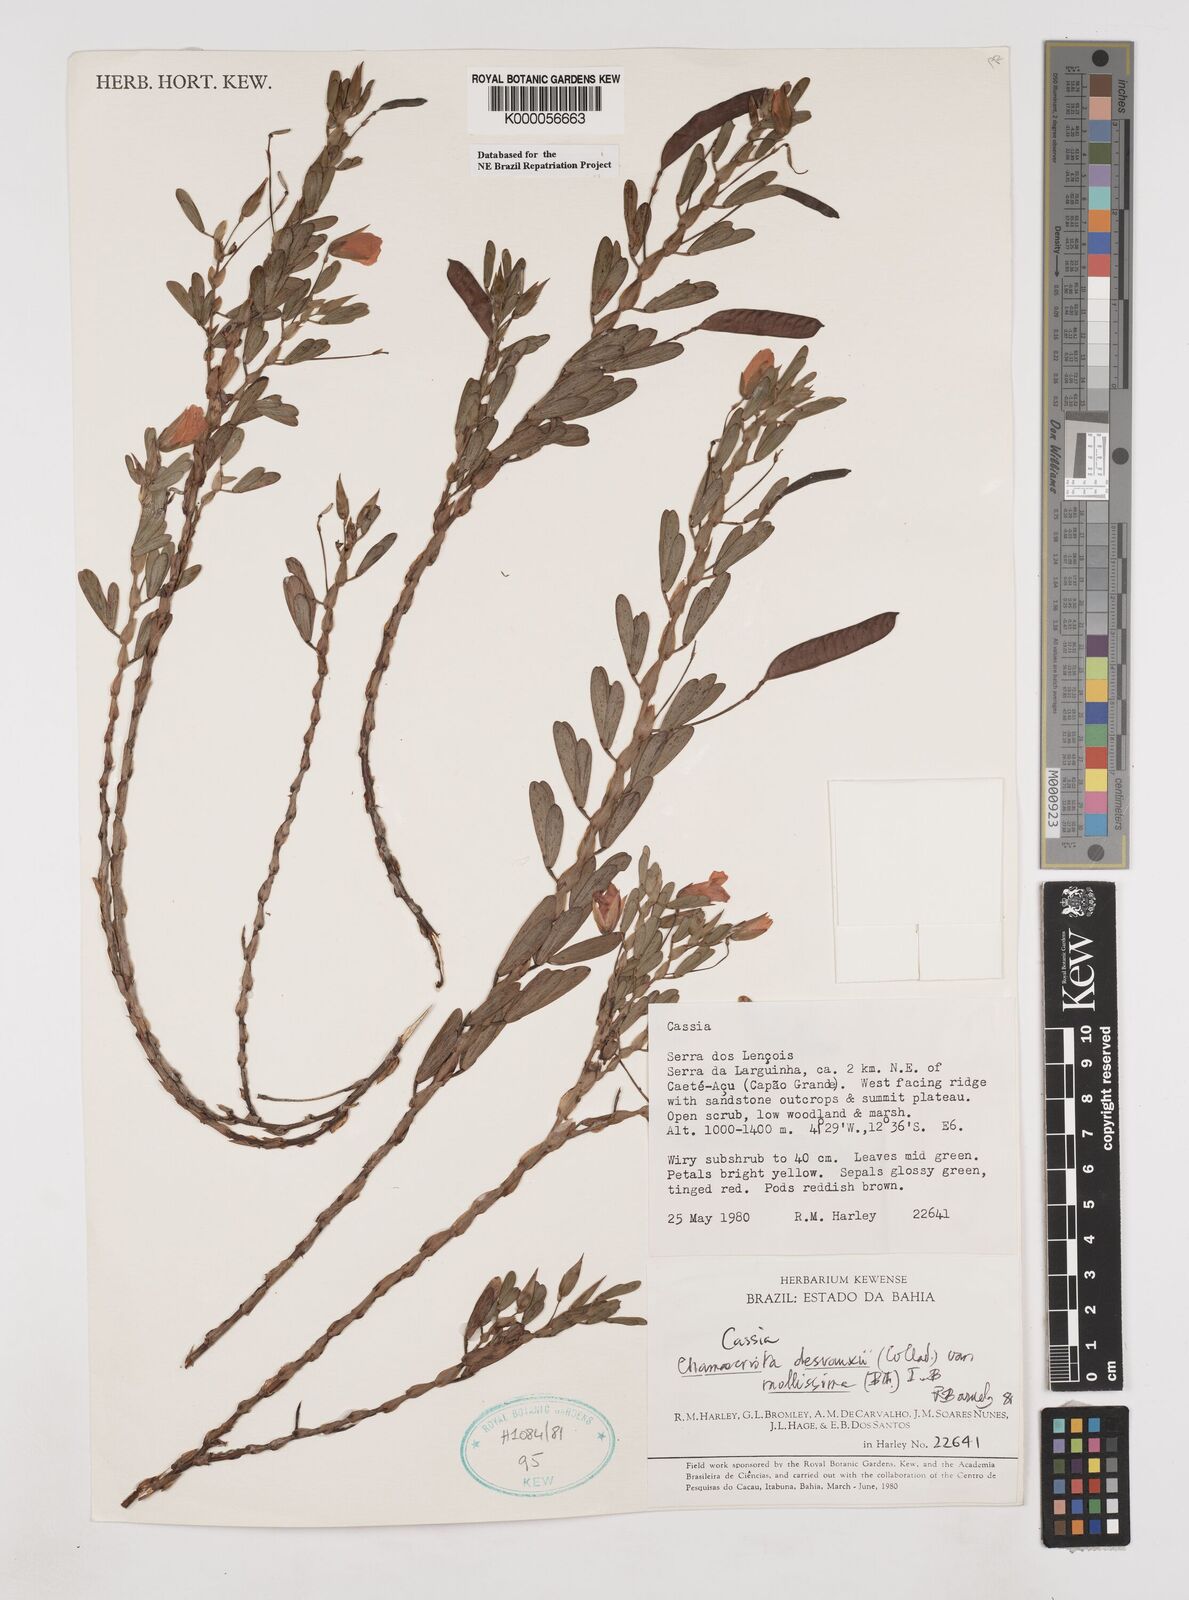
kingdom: Plantae
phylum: Tracheophyta
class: Magnoliopsida
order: Fabales
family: Fabaceae
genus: Chamaecrista
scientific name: Chamaecrista desvauxii
